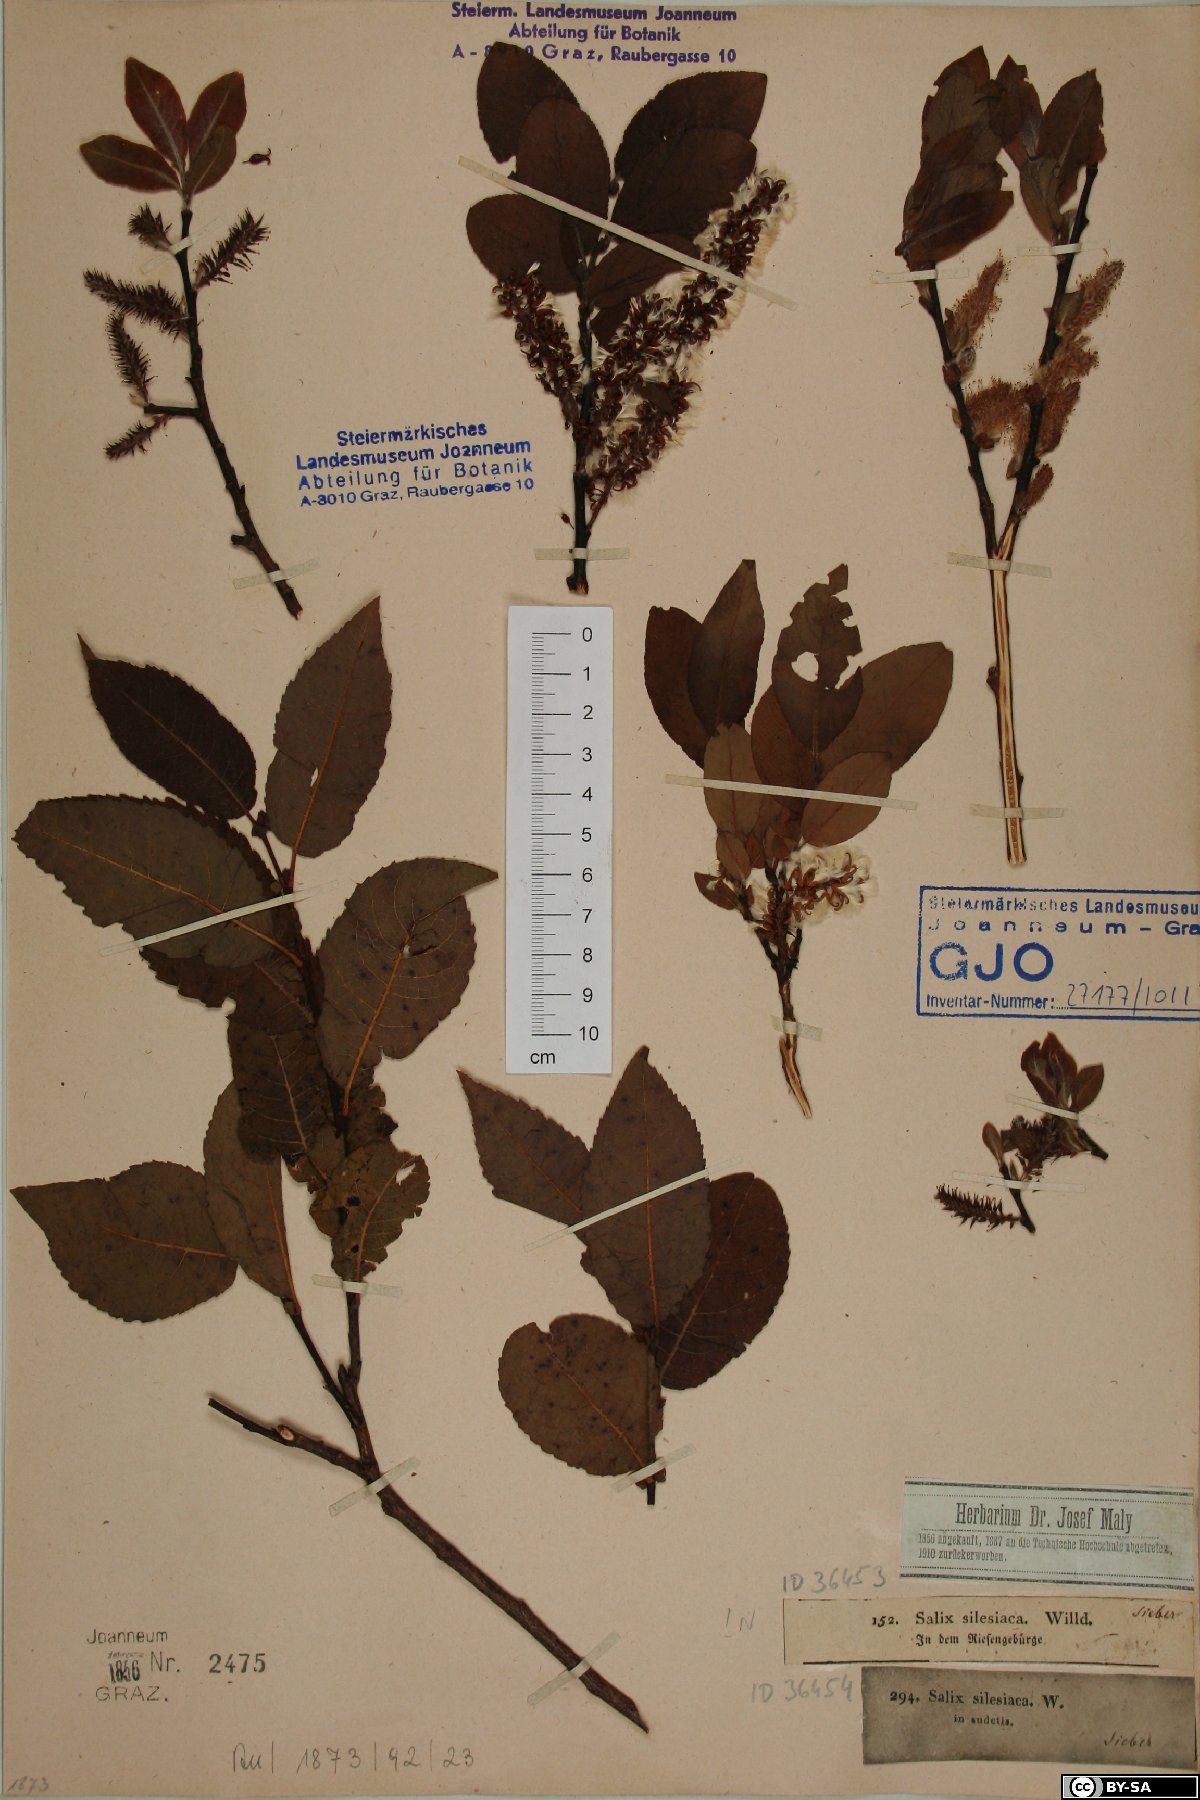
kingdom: Plantae
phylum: Tracheophyta
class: Magnoliopsida
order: Malpighiales
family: Salicaceae
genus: Salix
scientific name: Salix silesiaca
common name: Silesian willow
